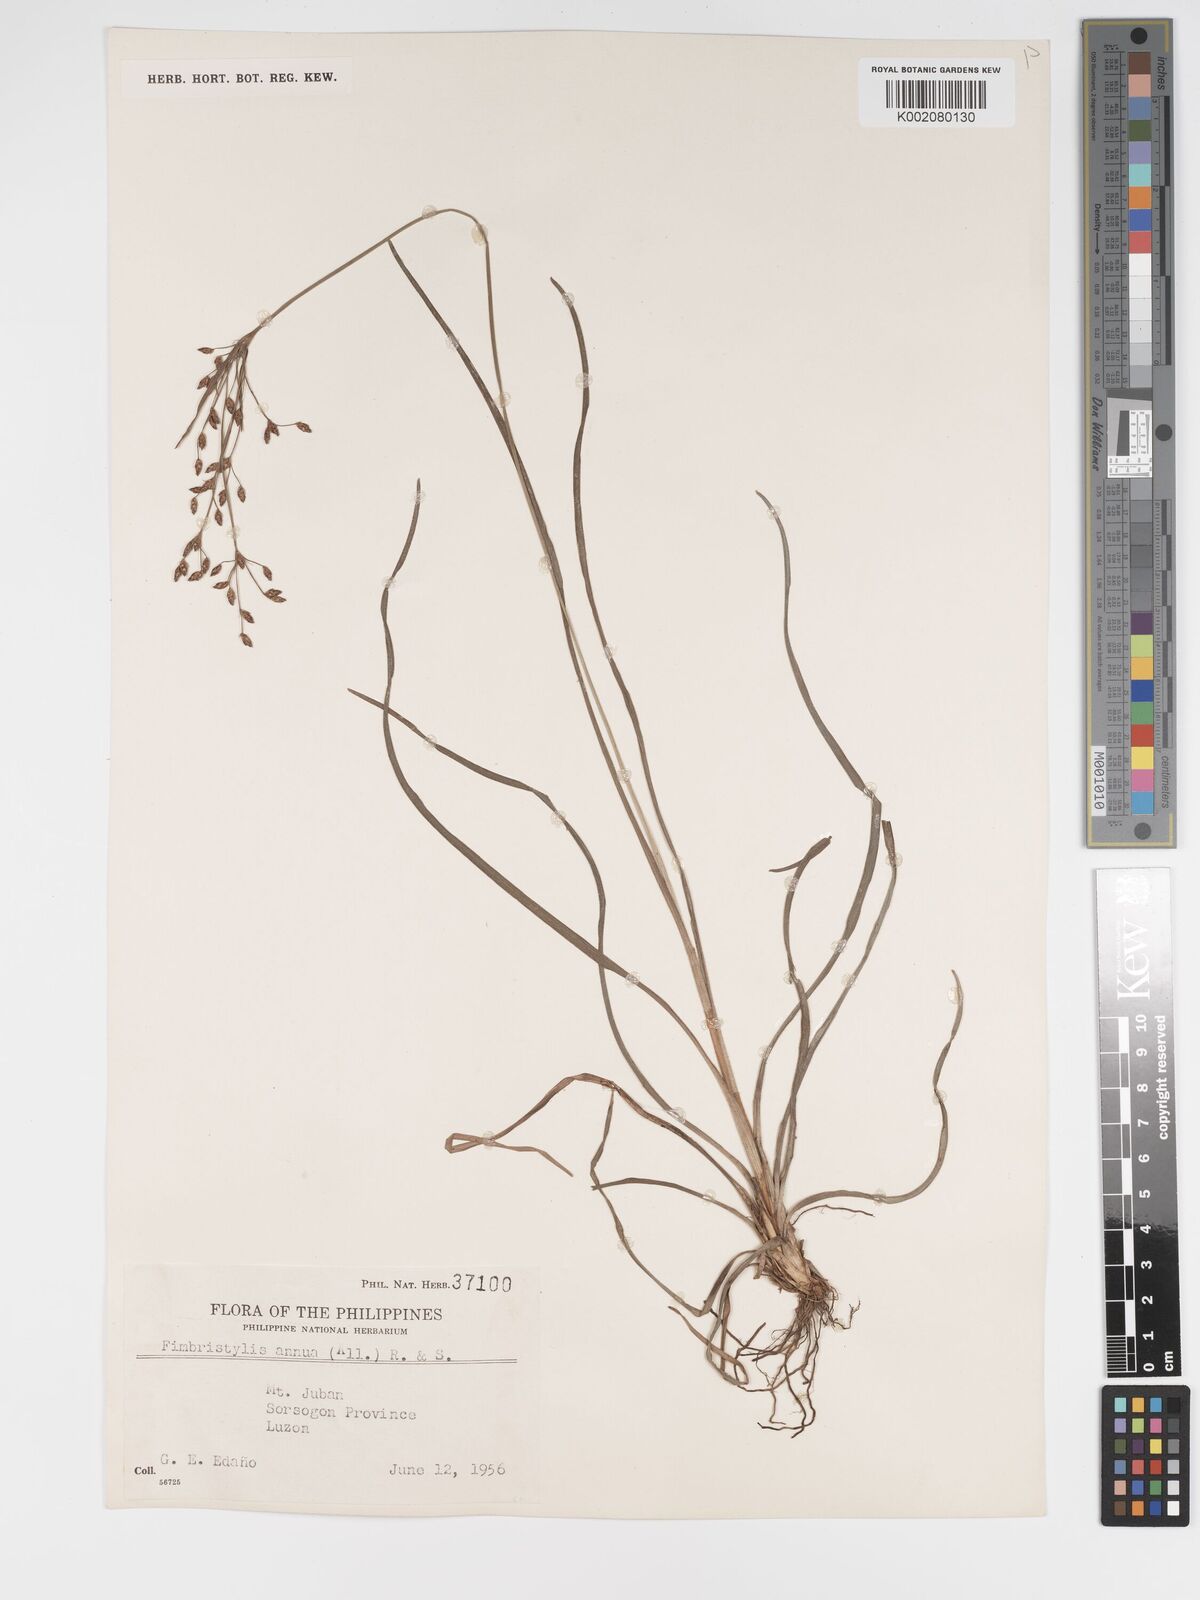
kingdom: Plantae
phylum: Tracheophyta
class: Liliopsida
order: Poales
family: Cyperaceae
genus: Fimbristylis
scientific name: Fimbristylis dichotoma
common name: Forked fimbry
